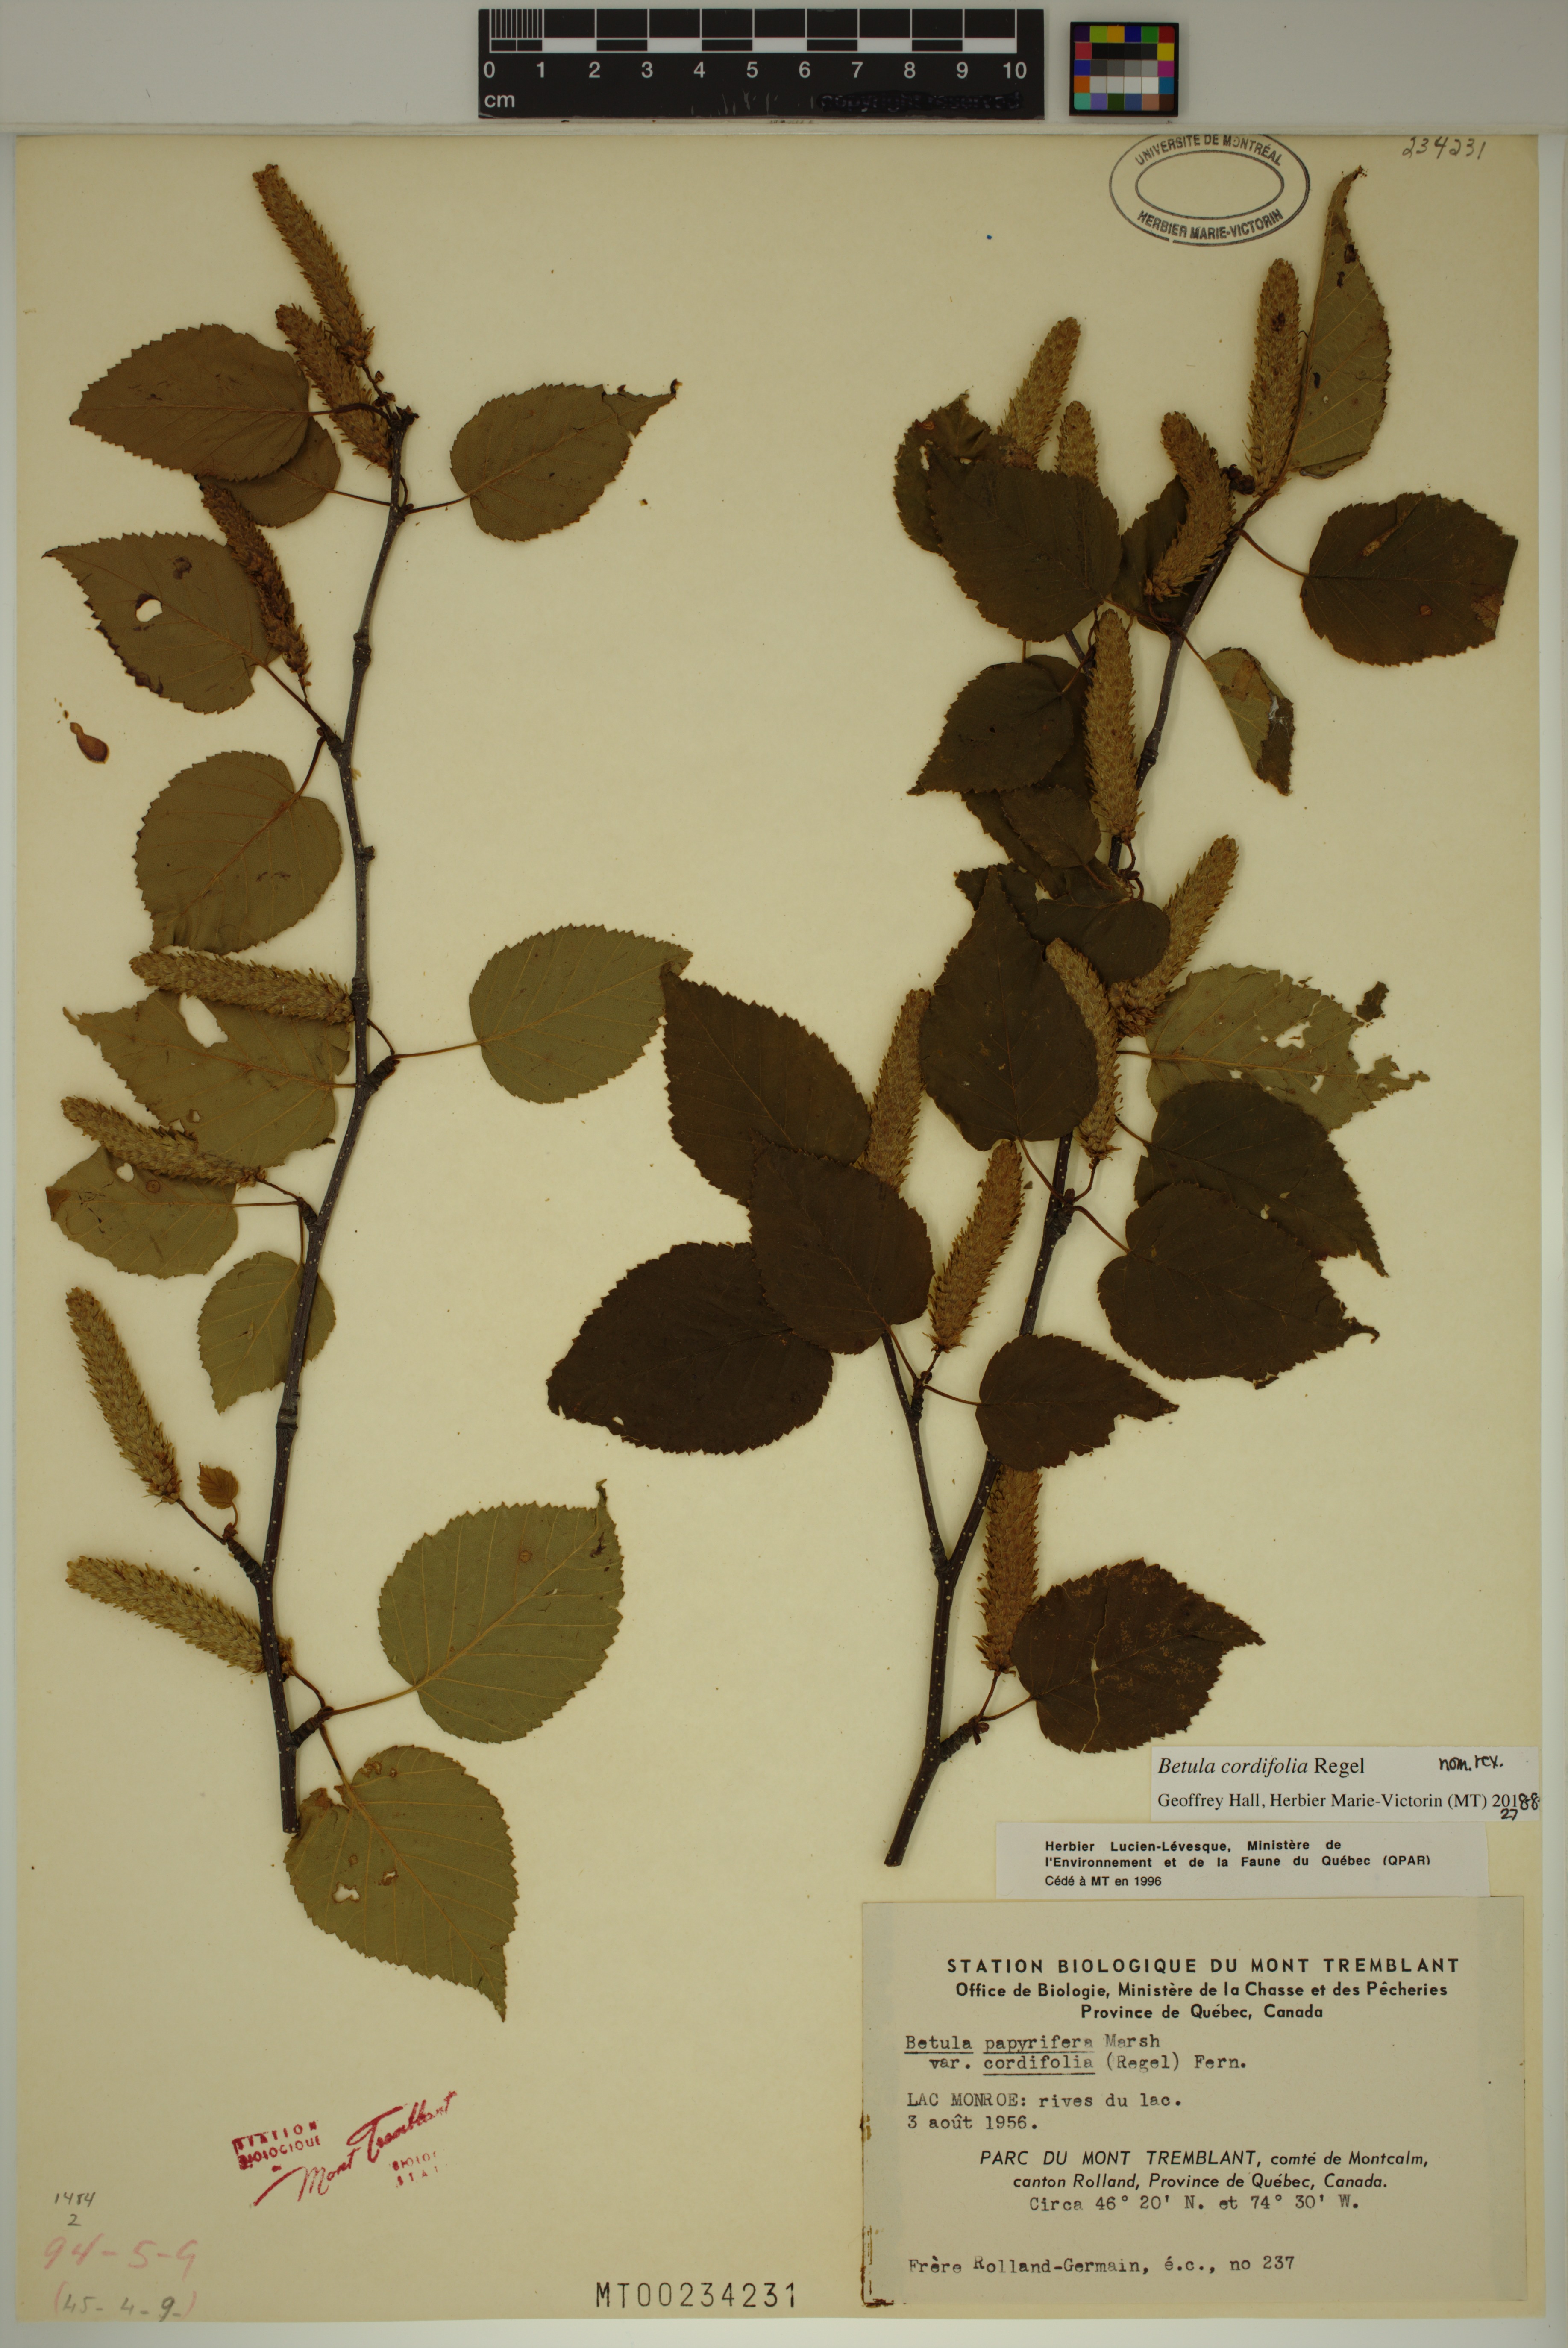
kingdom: Plantae
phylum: Tracheophyta
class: Magnoliopsida
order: Fagales
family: Betulaceae
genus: Betula
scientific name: Betula cordifolia
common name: Mountain white birch
